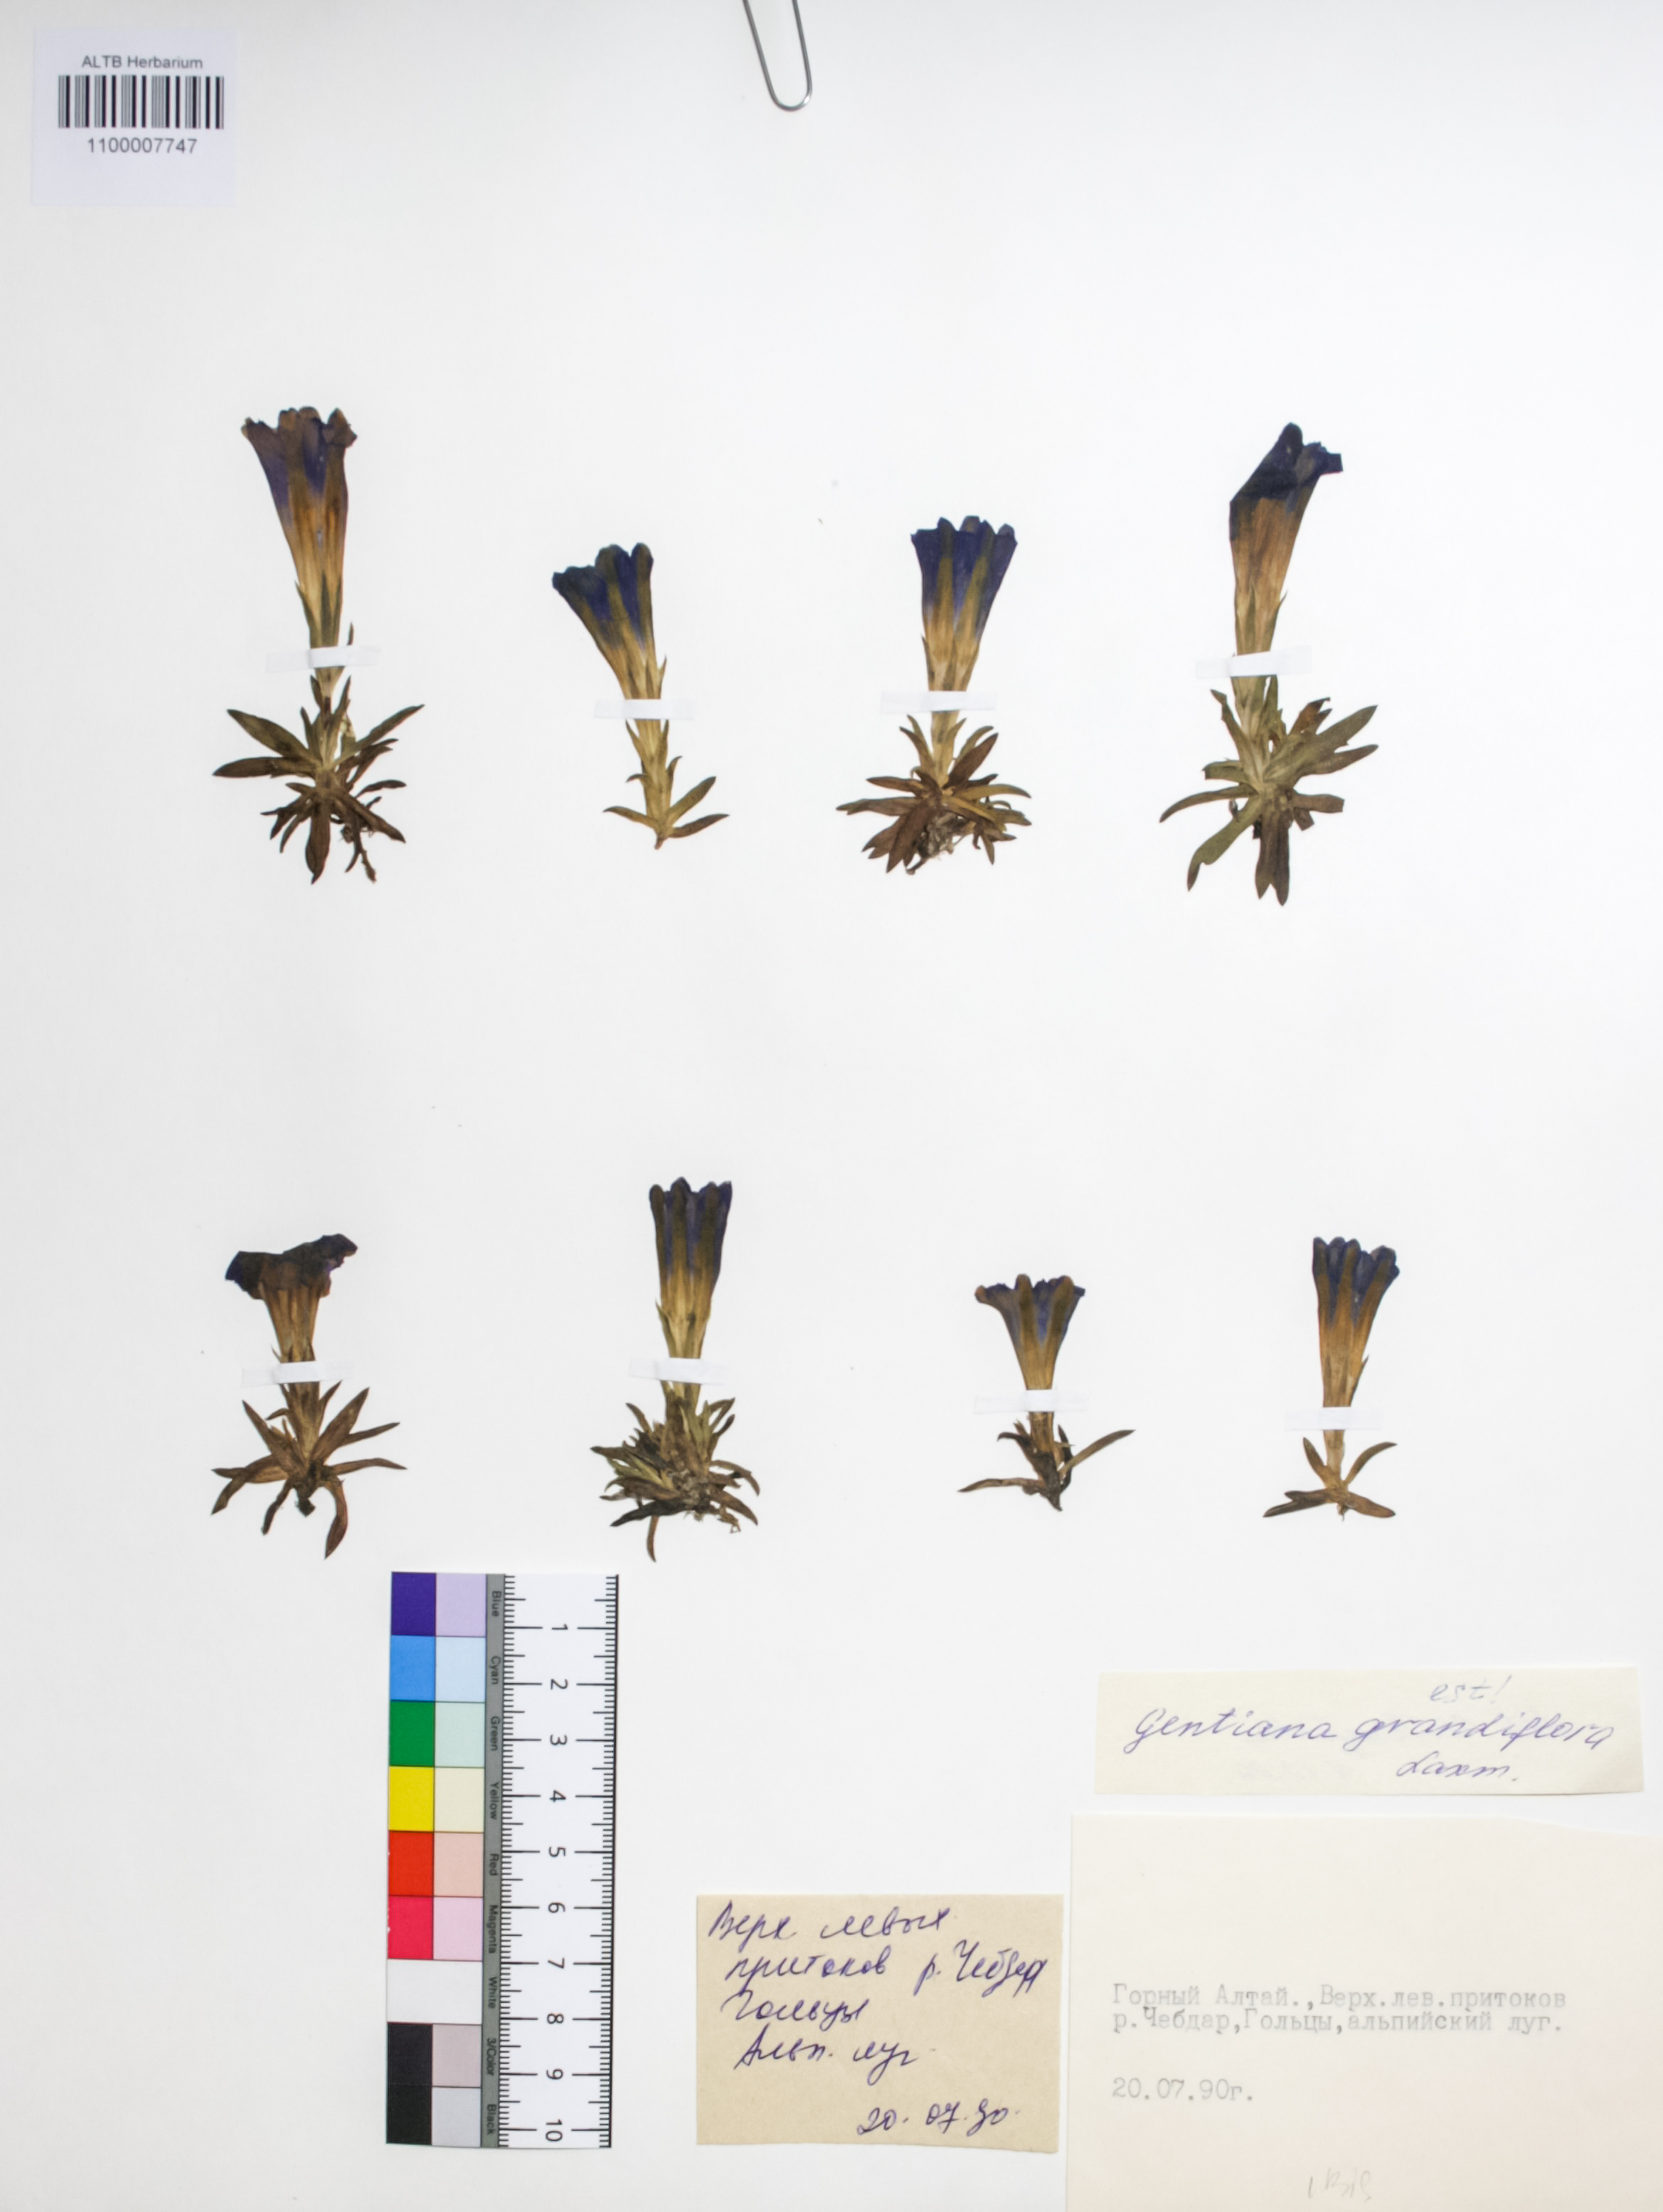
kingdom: Plantae
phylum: Tracheophyta
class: Magnoliopsida
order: Gentianales
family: Gentianaceae
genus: Gentiana
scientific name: Gentiana grandiflora
